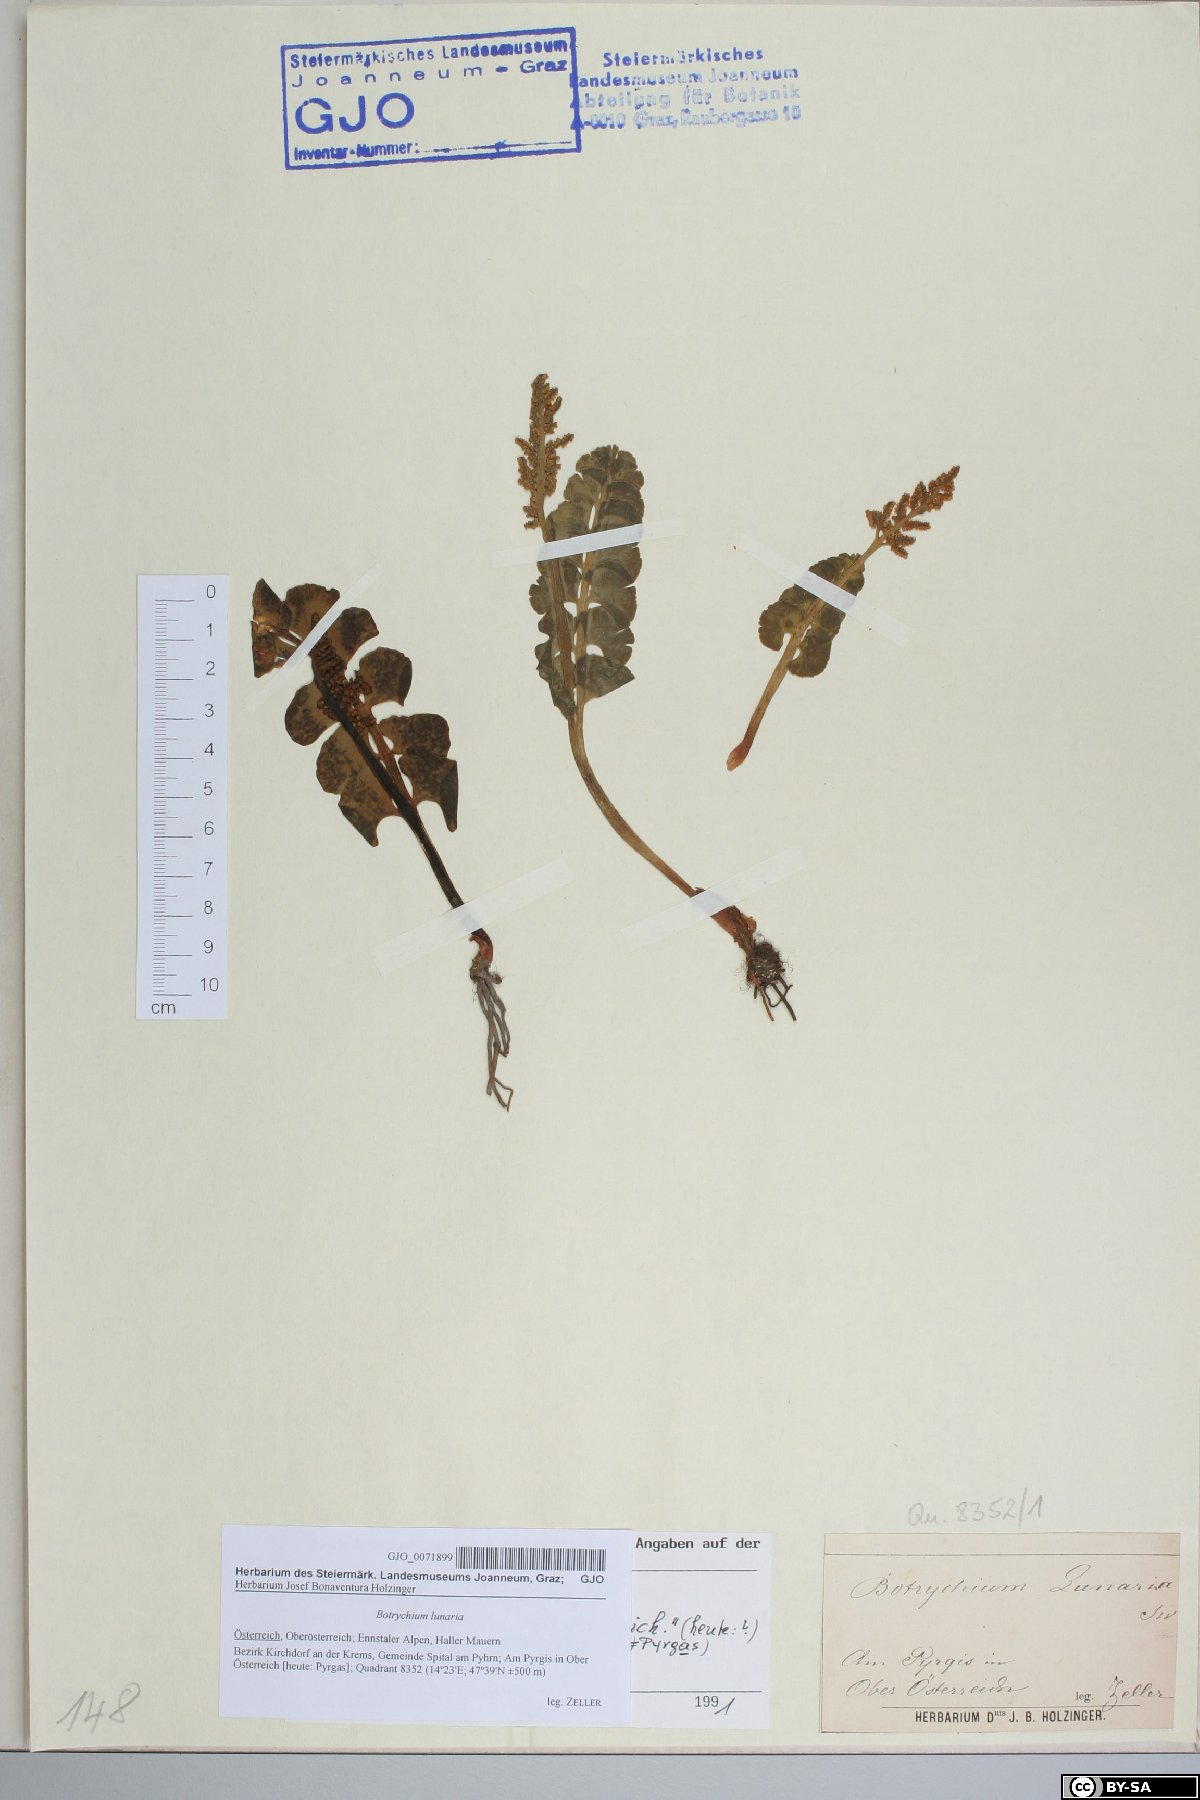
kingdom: Plantae
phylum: Tracheophyta
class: Polypodiopsida
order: Ophioglossales
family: Ophioglossaceae
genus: Botrychium
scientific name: Botrychium lunaria
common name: Moonwort
